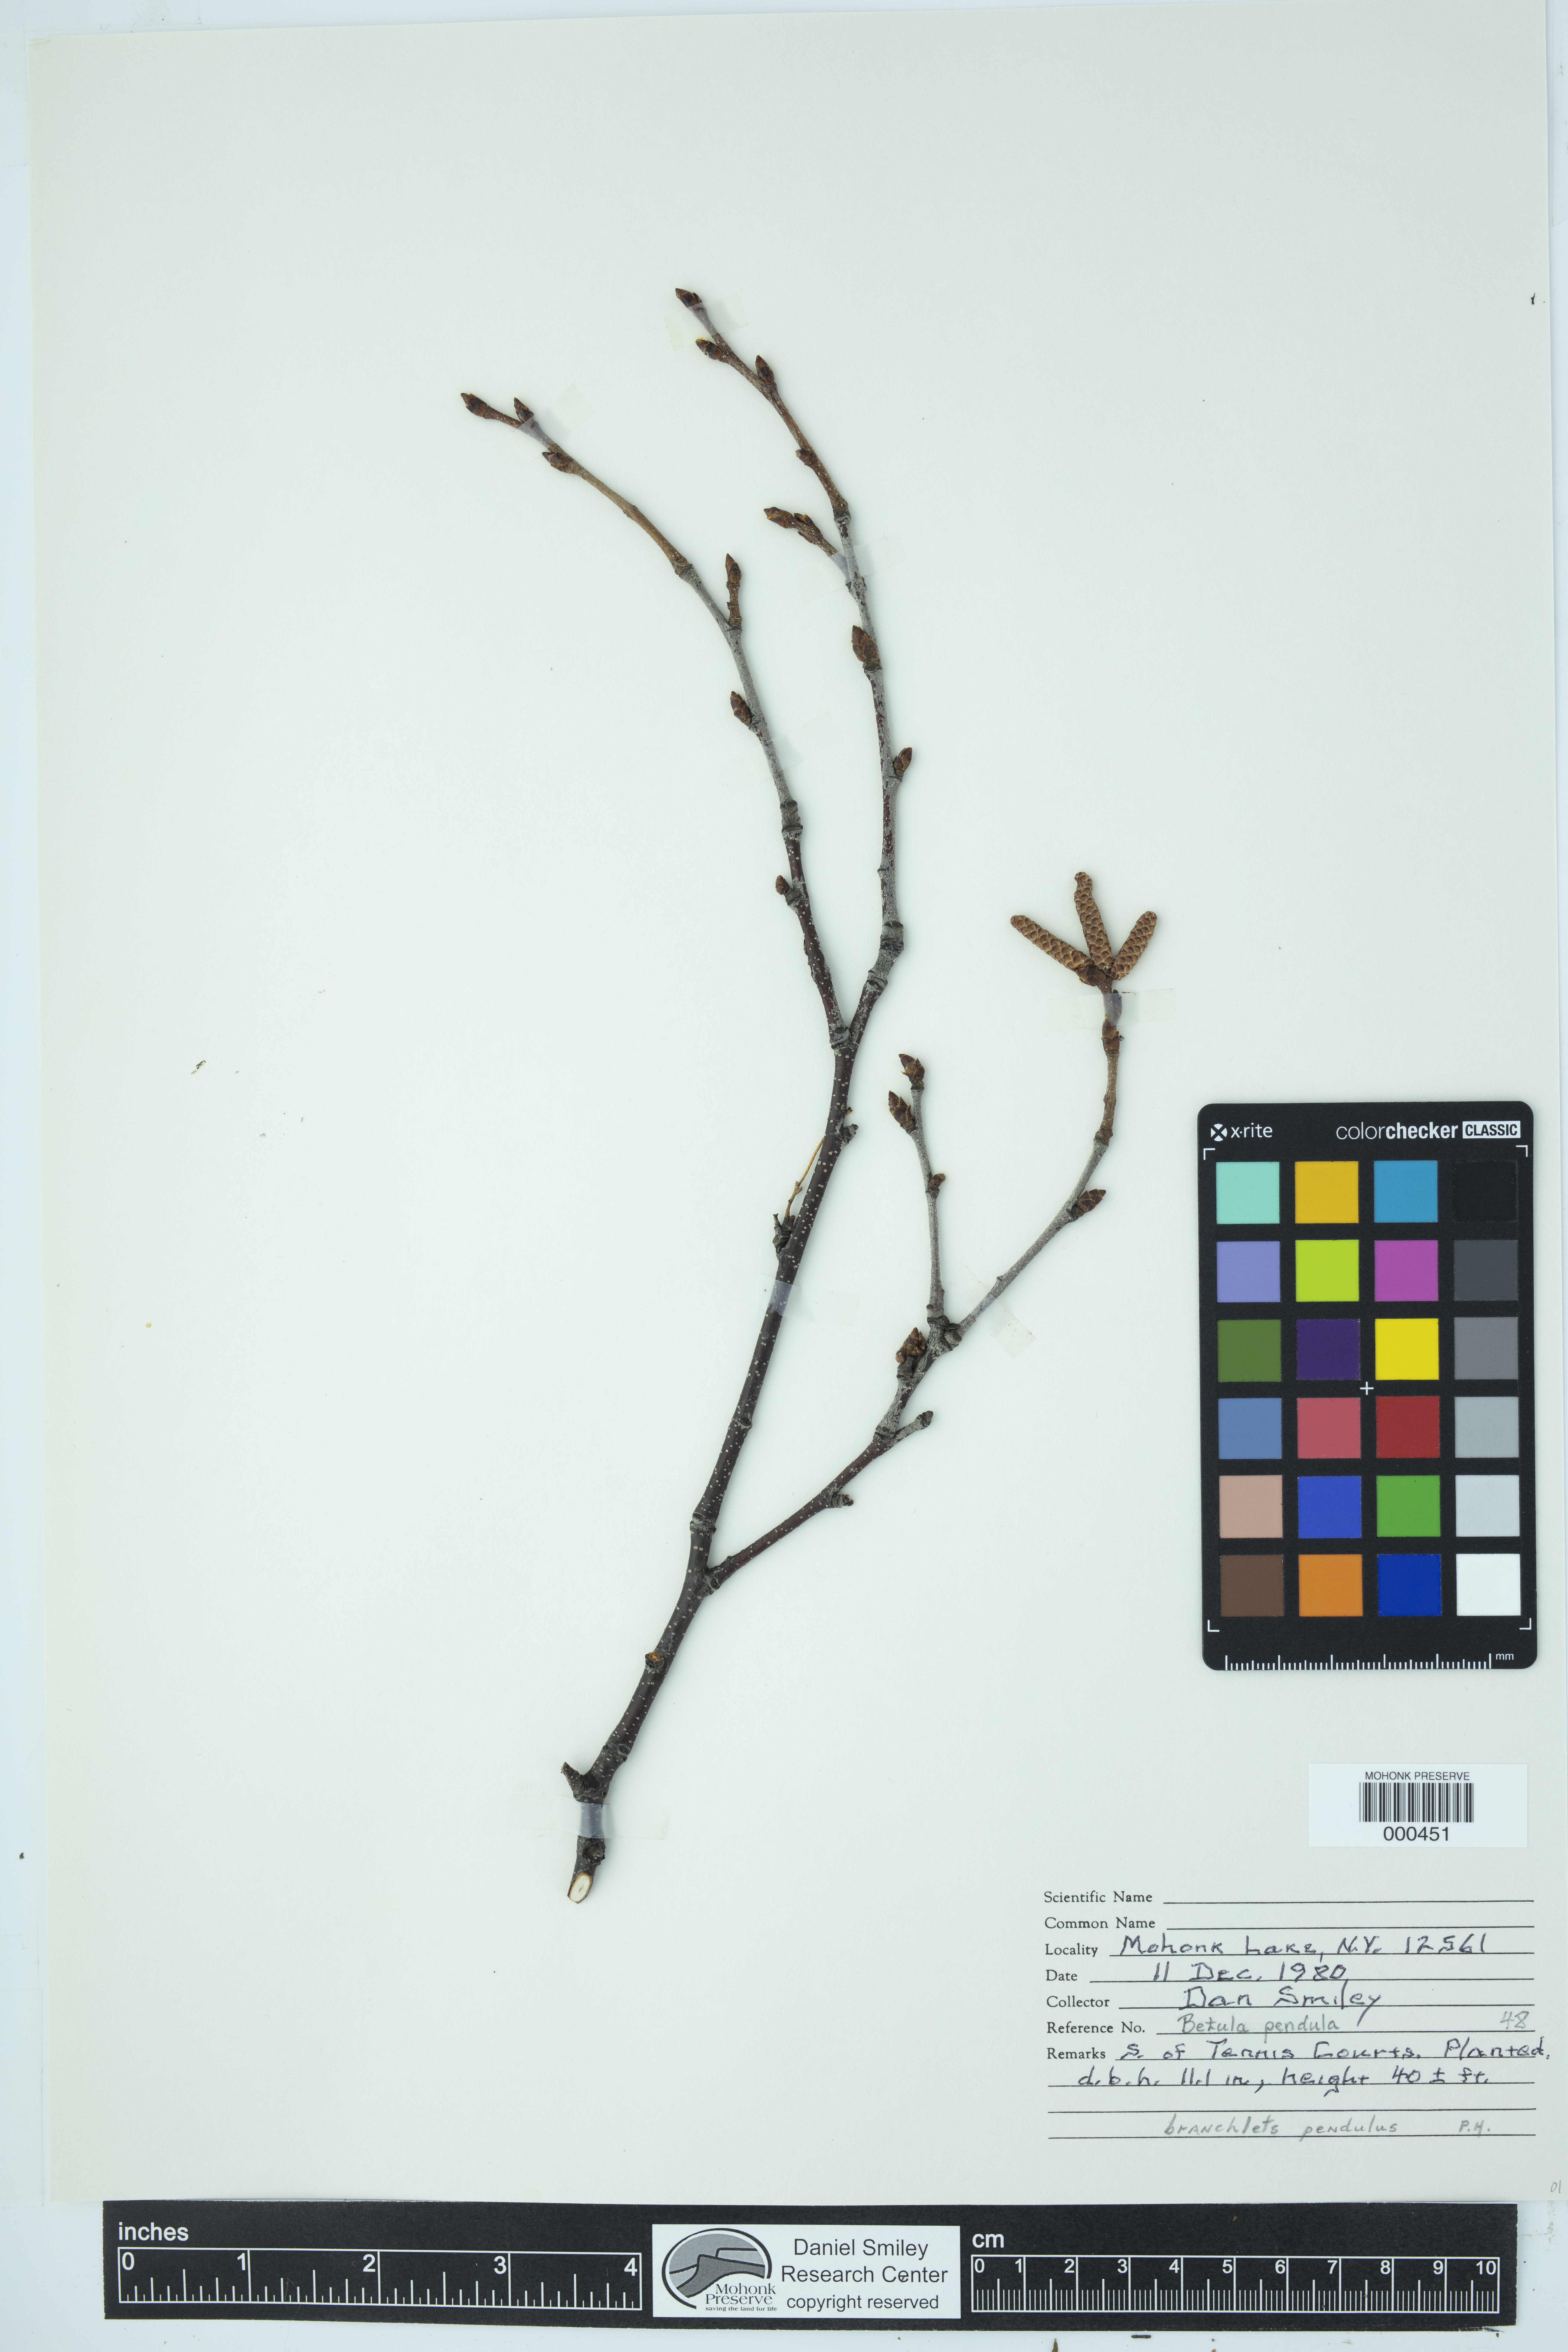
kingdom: Plantae
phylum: Tracheophyta
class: Magnoliopsida
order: Fagales
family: Betulaceae
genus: Betula
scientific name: Betula pendula
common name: Silver birch
